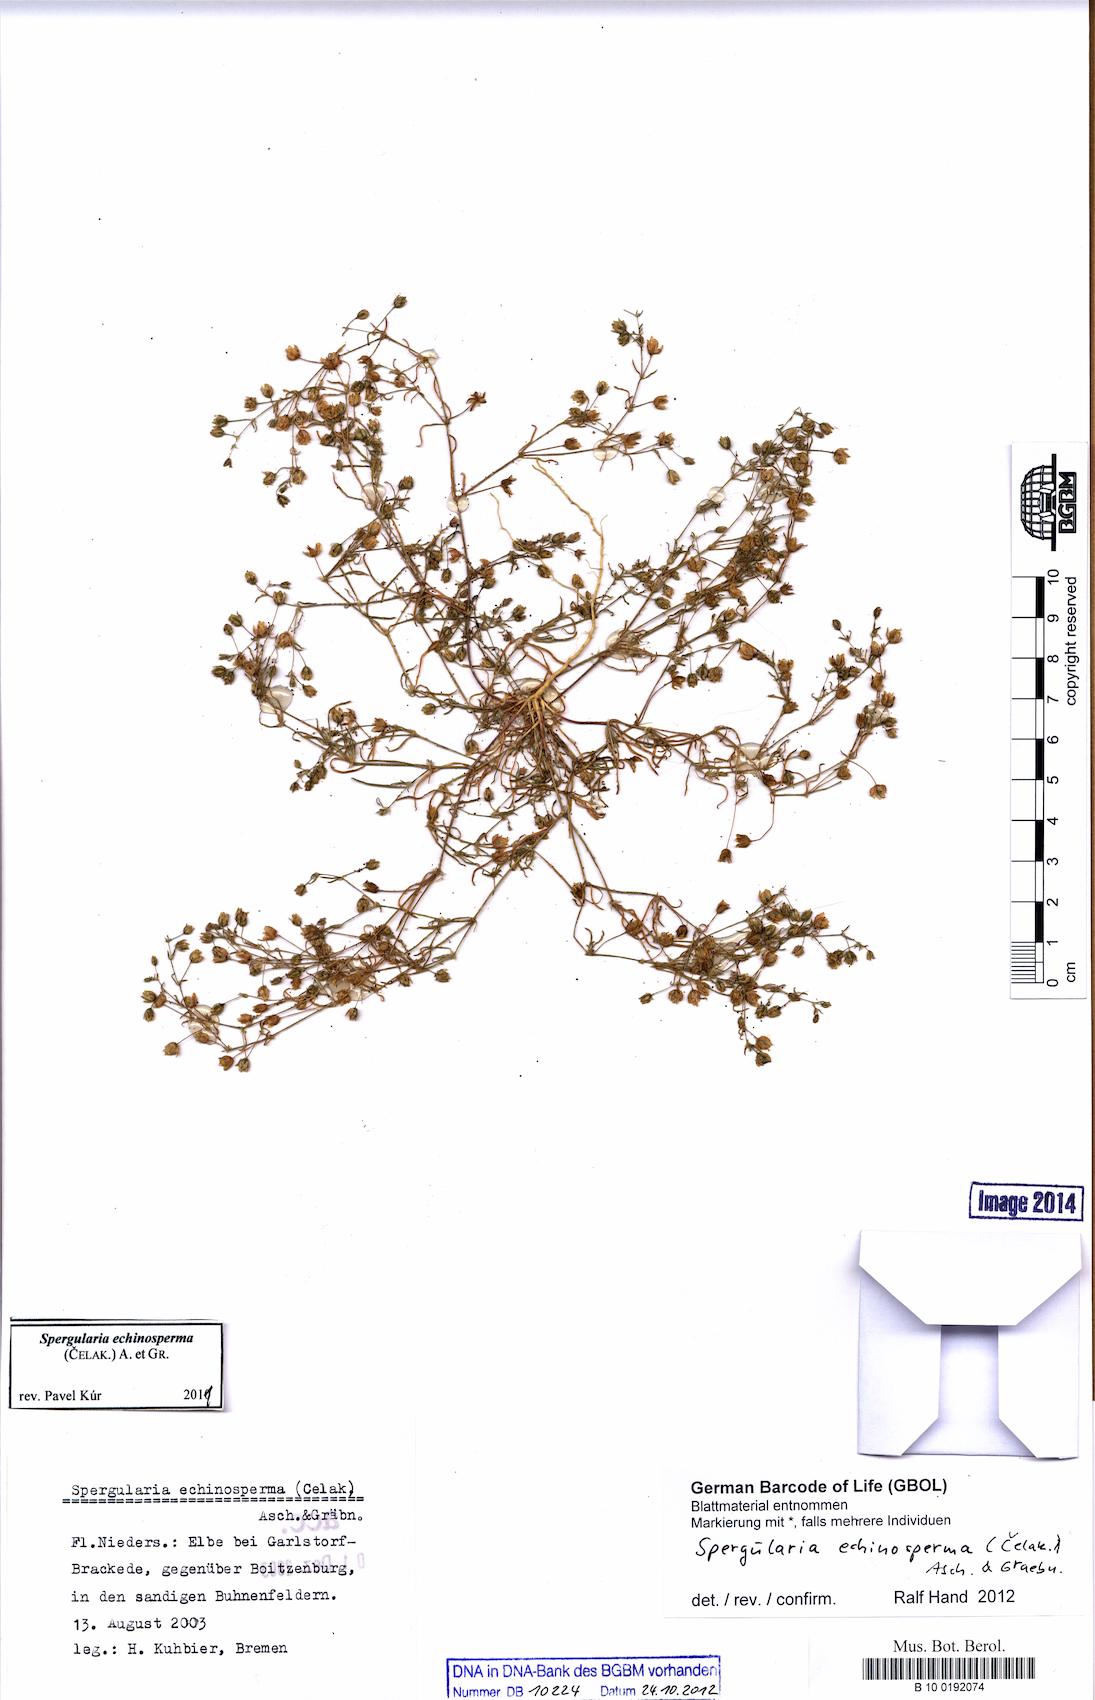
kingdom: Plantae
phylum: Tracheophyta
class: Magnoliopsida
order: Caryophyllales
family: Caryophyllaceae
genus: Spergularia
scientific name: Spergularia echinosperma
